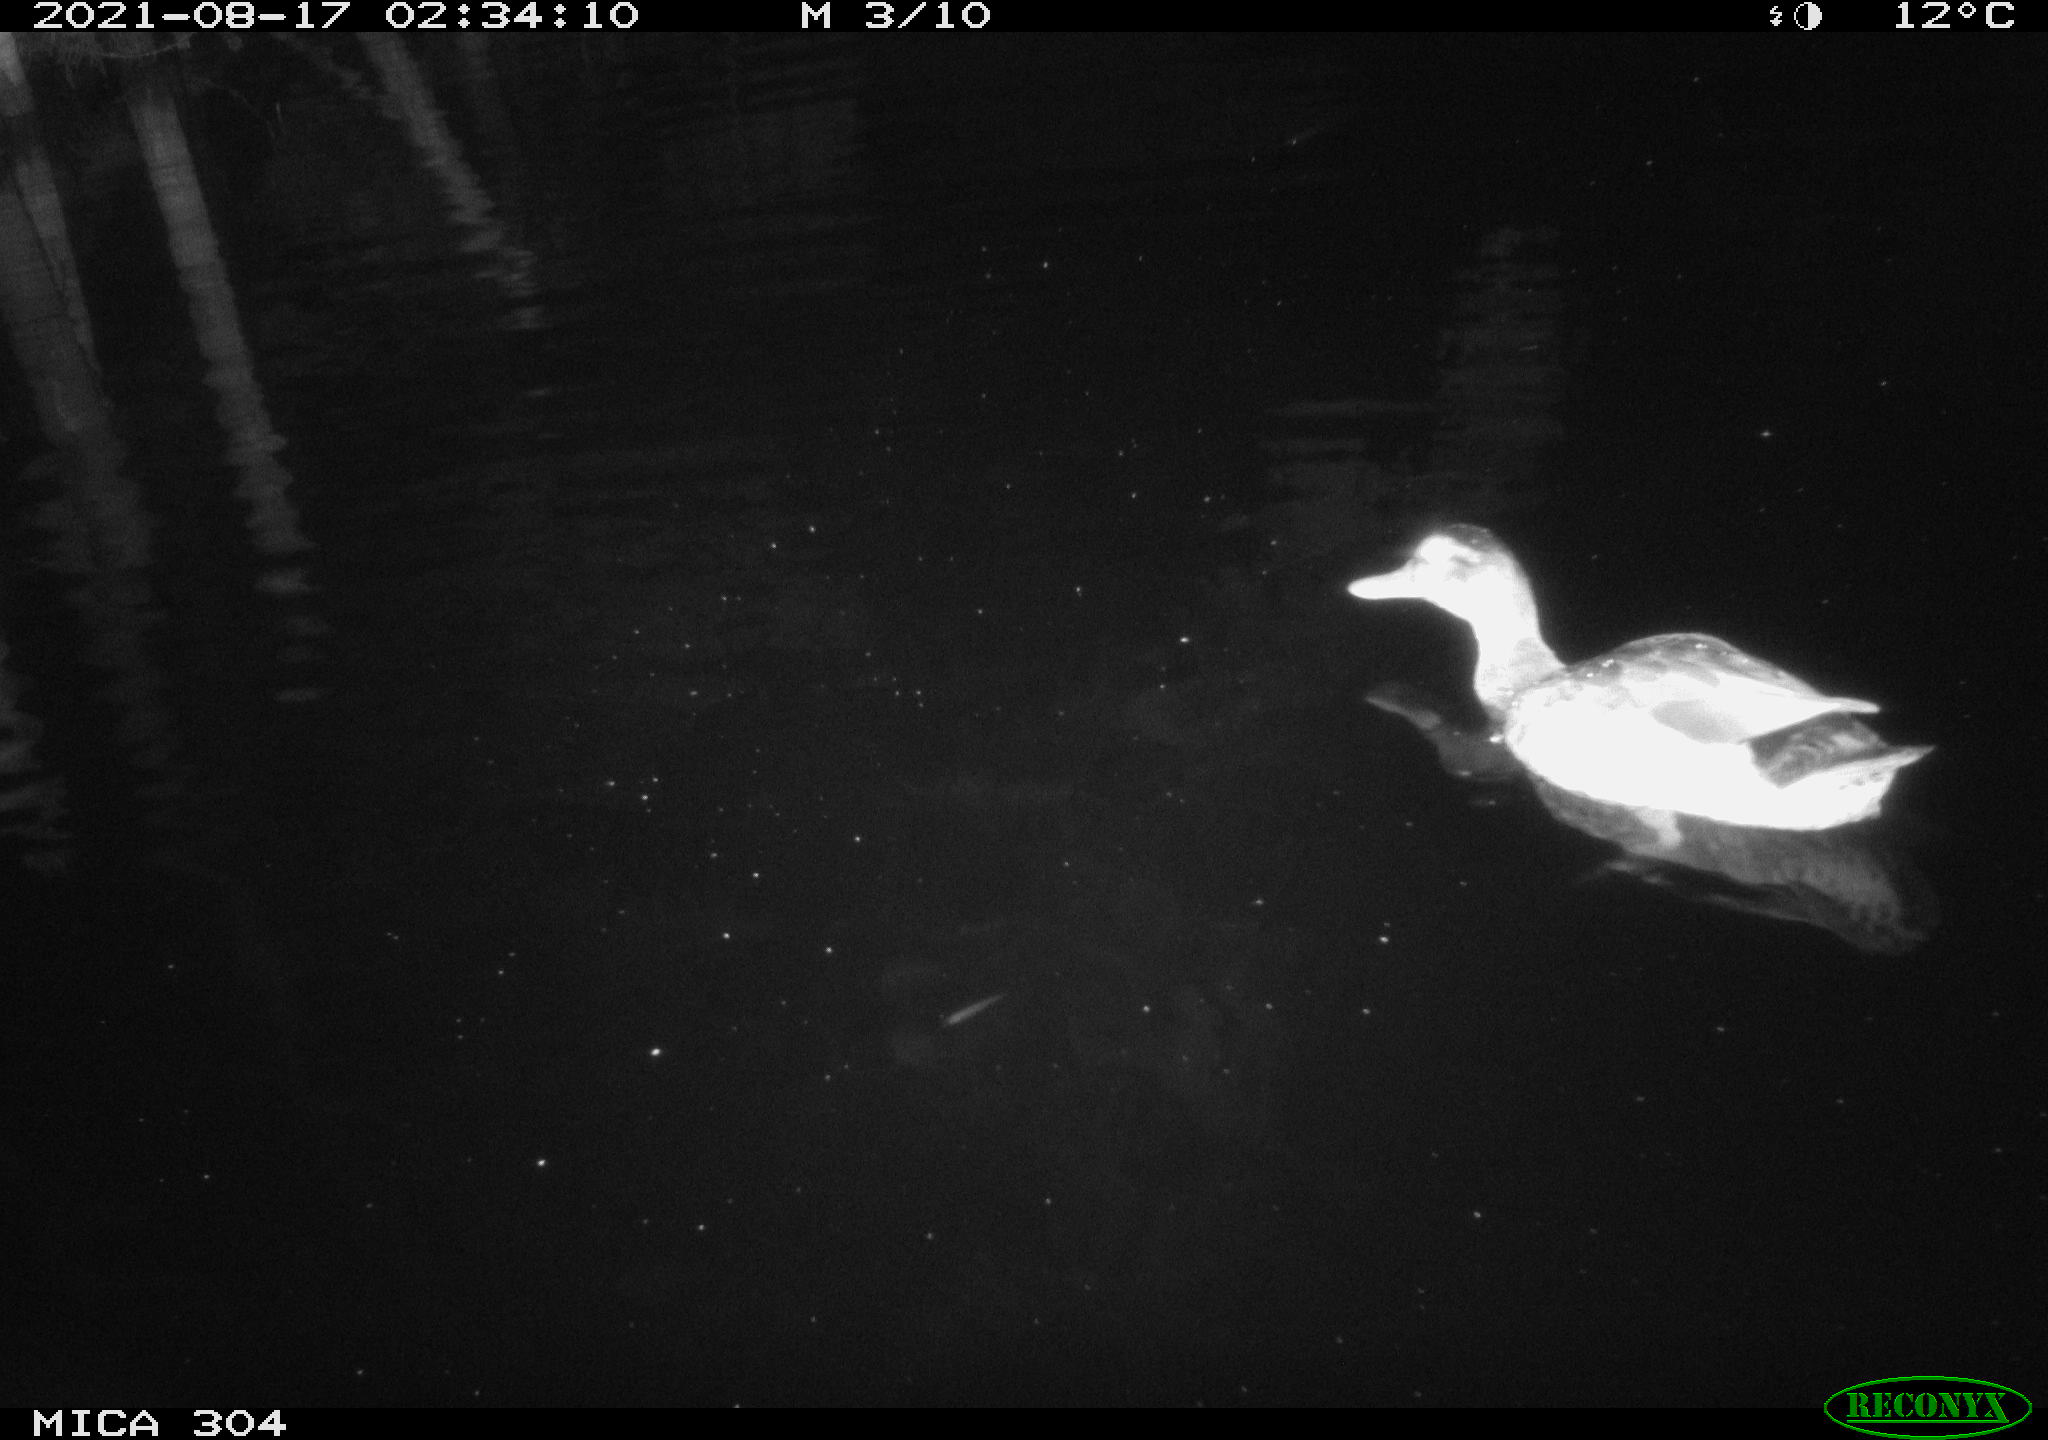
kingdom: Animalia
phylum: Chordata
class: Aves
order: Anseriformes
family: Anatidae
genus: Anas
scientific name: Anas platyrhynchos
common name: Mallard
